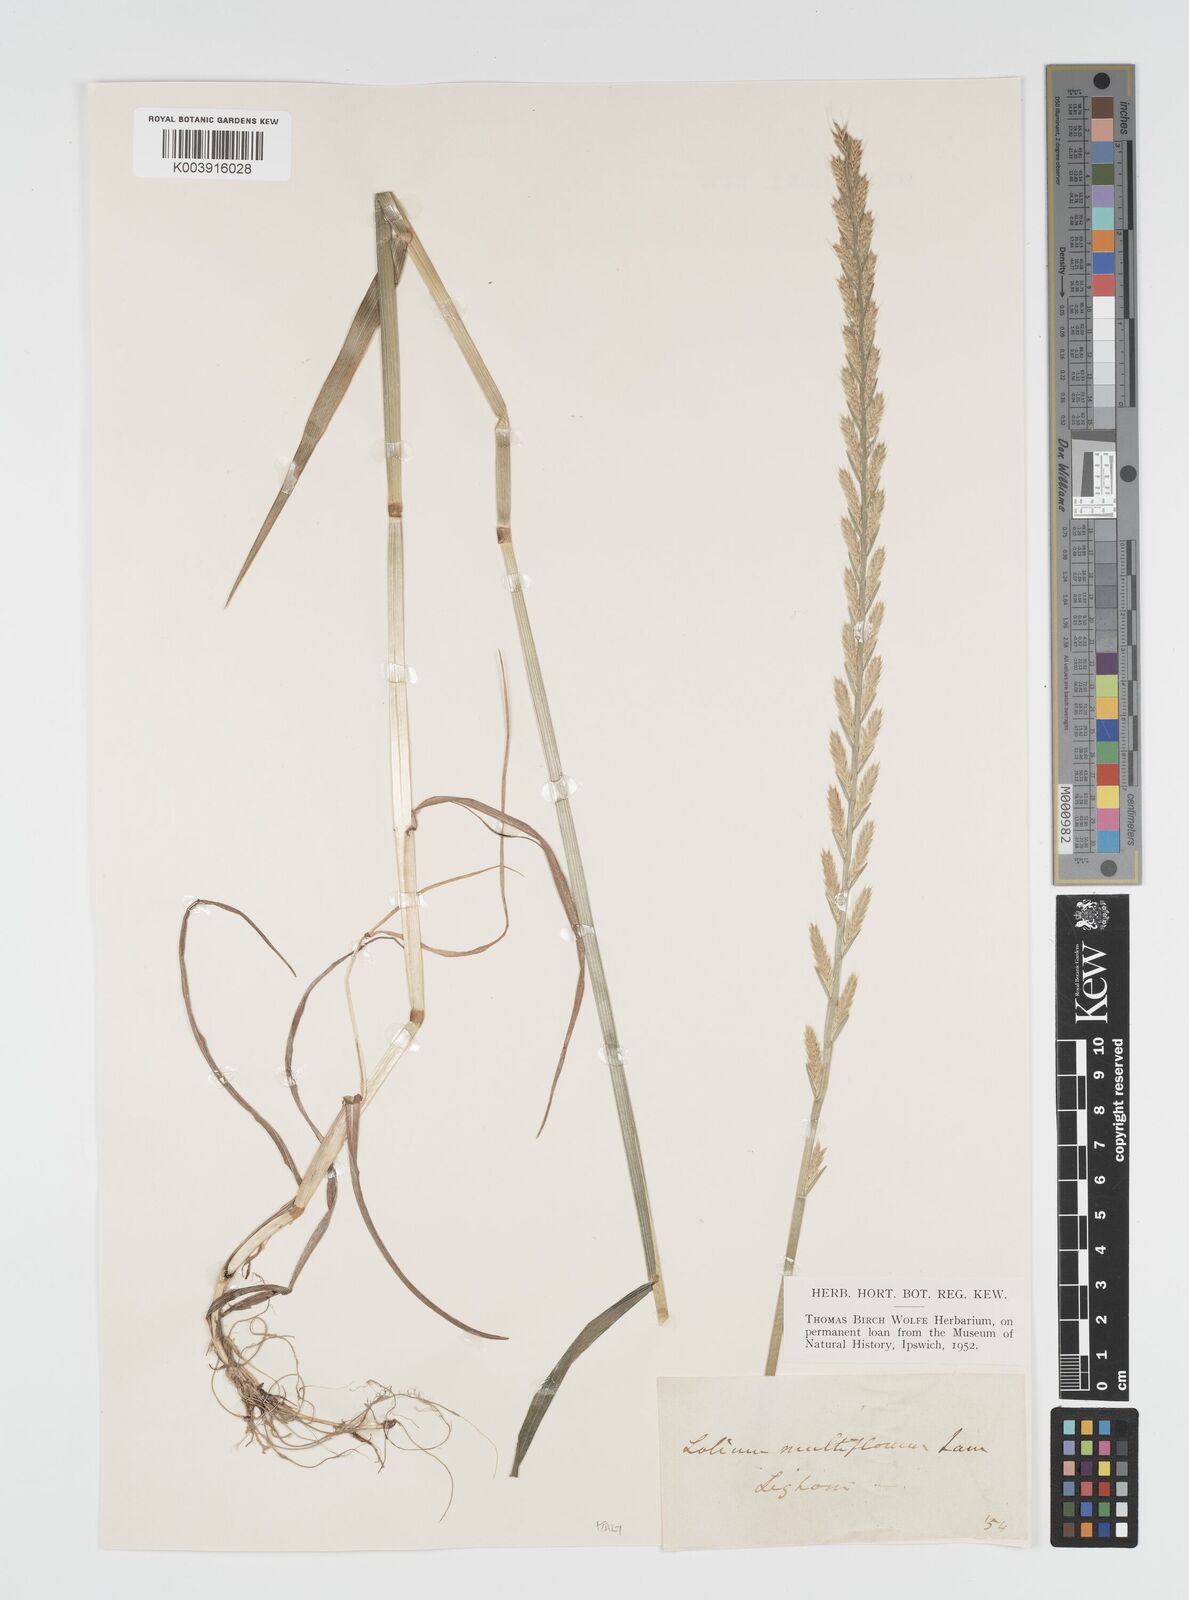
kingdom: Plantae
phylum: Tracheophyta
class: Liliopsida
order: Poales
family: Poaceae
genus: Lolium
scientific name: Lolium multiflorum
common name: Annual ryegrass
